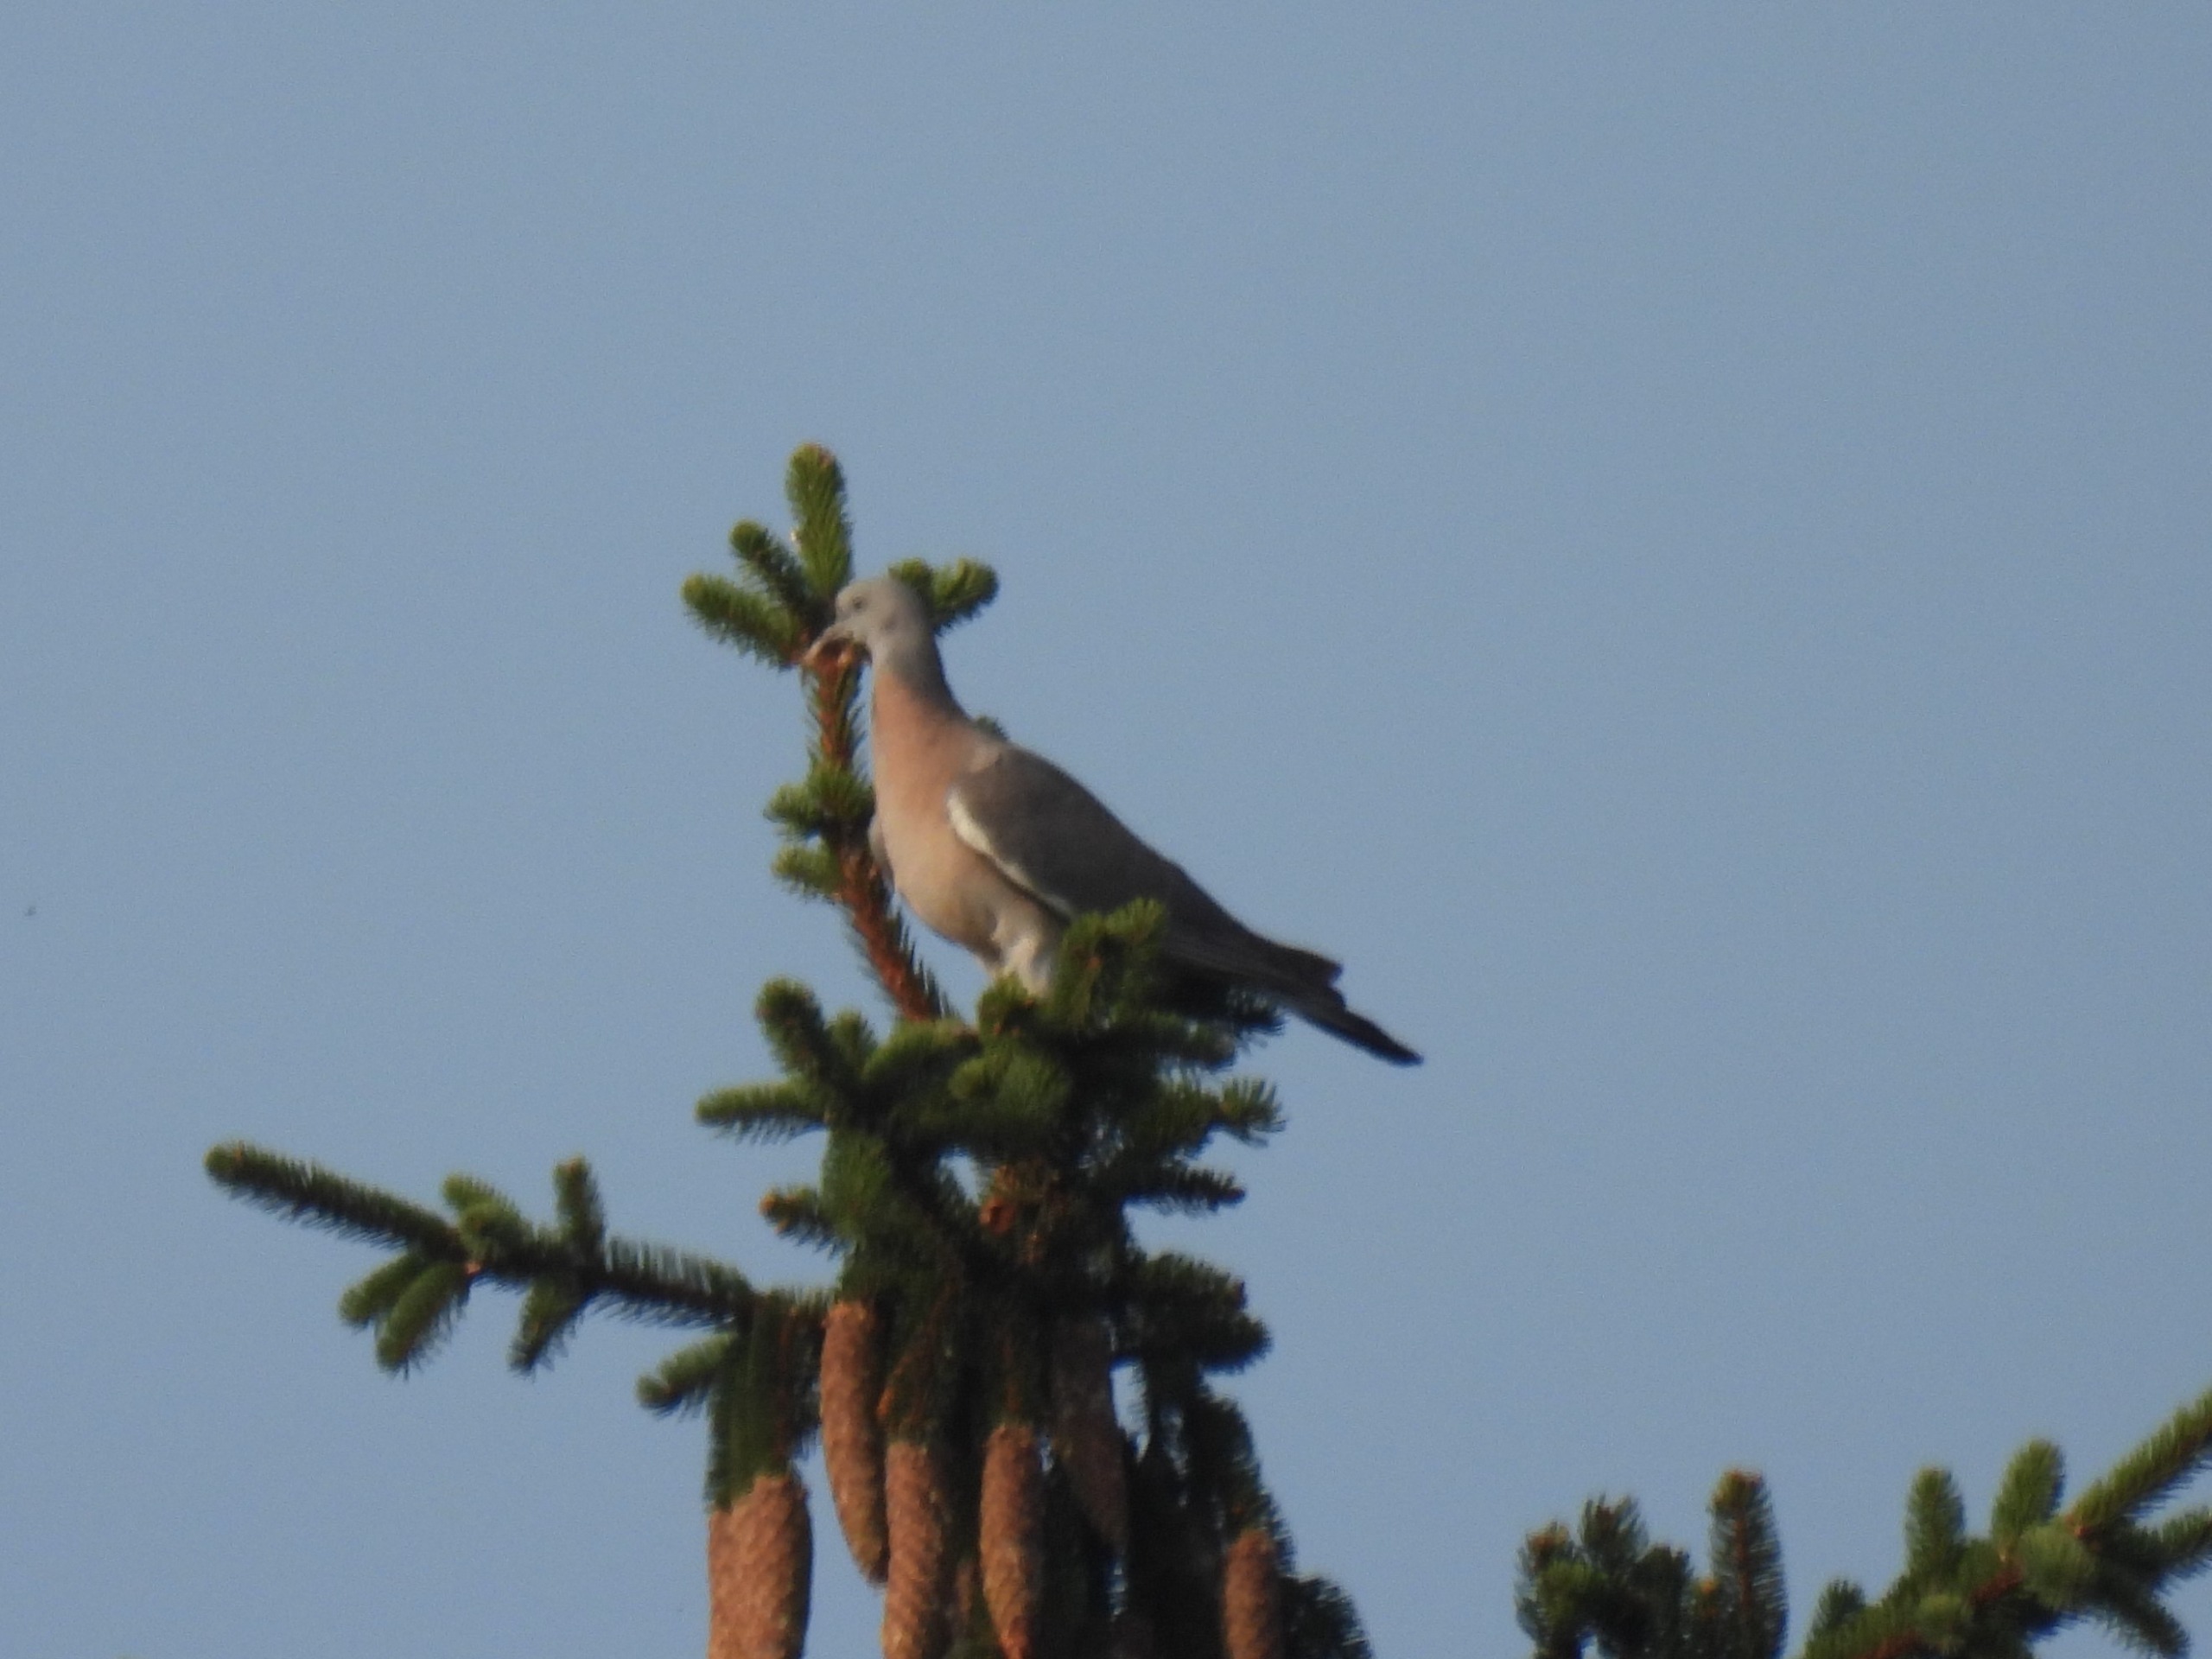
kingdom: Animalia
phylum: Chordata
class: Aves
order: Columbiformes
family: Columbidae
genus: Columba
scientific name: Columba palumbus
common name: Ringdue
